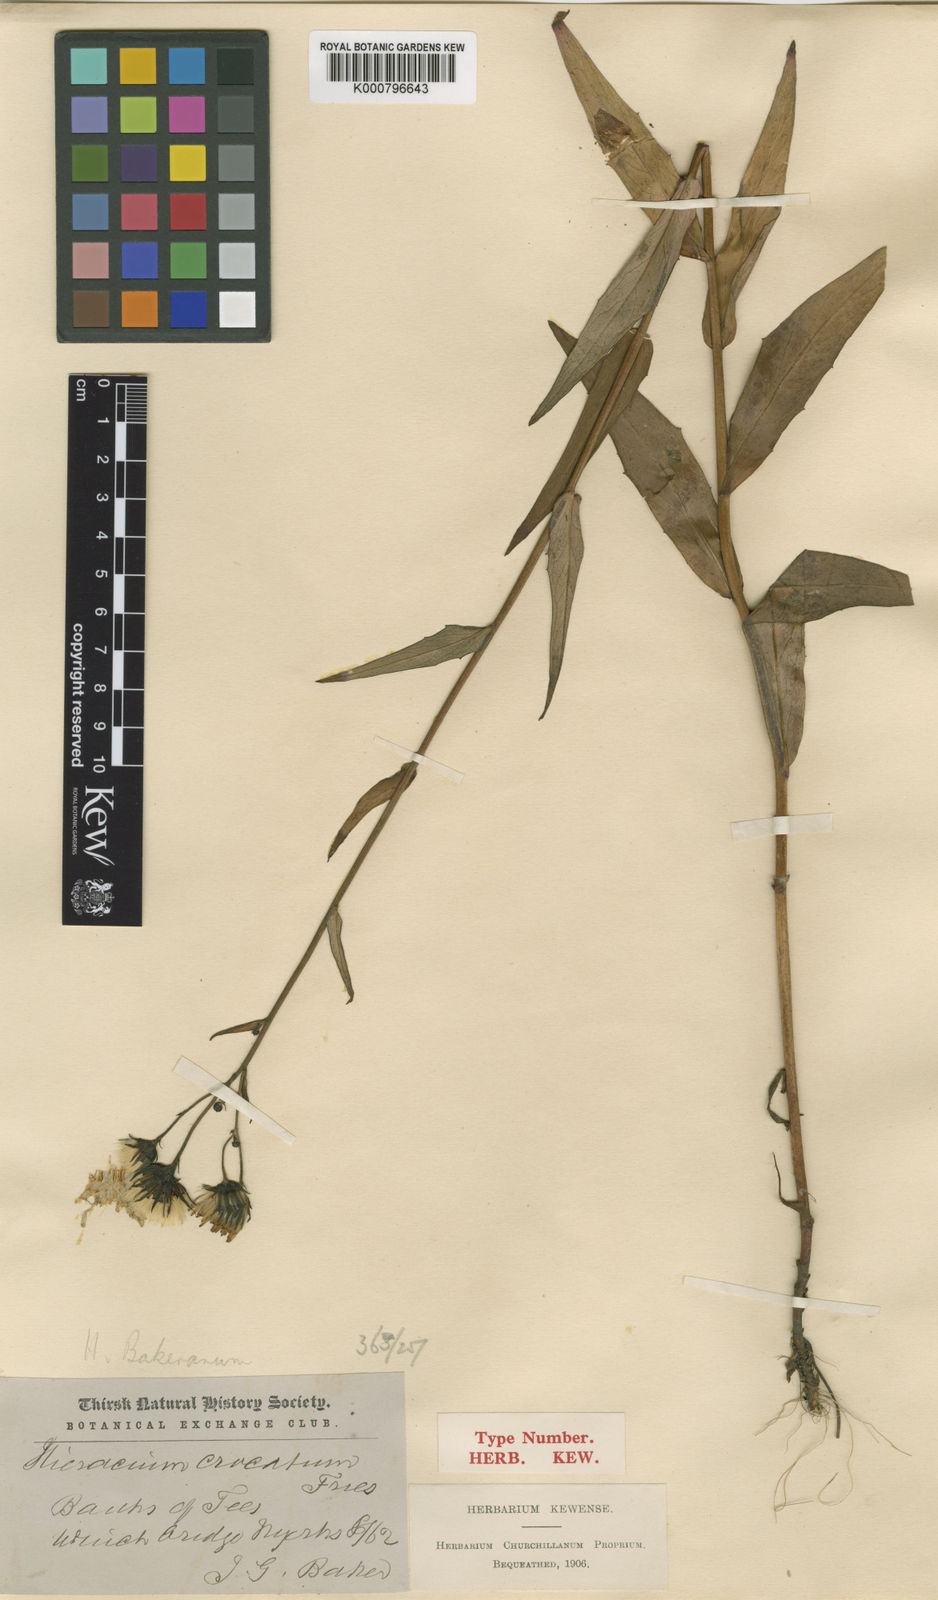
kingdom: Plantae
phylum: Tracheophyta
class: Magnoliopsida
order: Asterales
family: Asteraceae
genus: Hieracium
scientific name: Hieracium bakerianum
